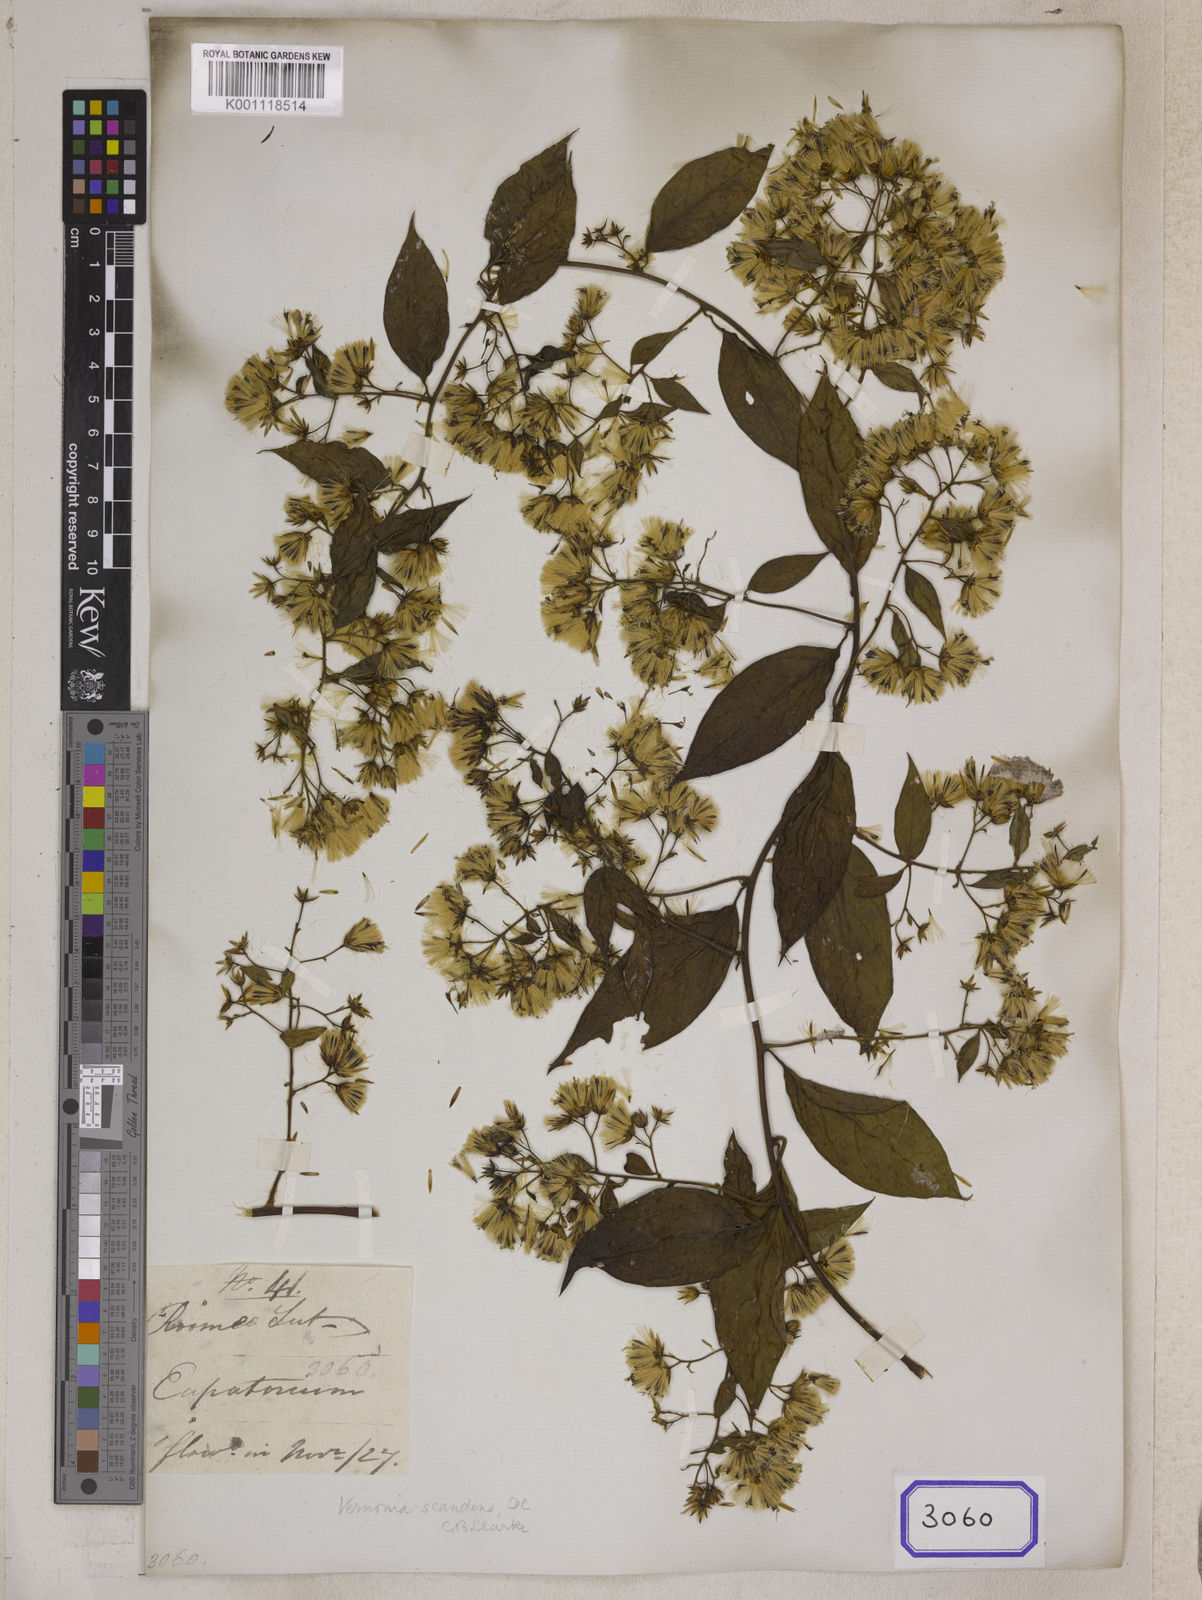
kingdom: Plantae
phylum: Tracheophyta
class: Magnoliopsida
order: Asterales
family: Asteraceae
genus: Decaneuropsis
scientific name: Decaneuropsis obovata
